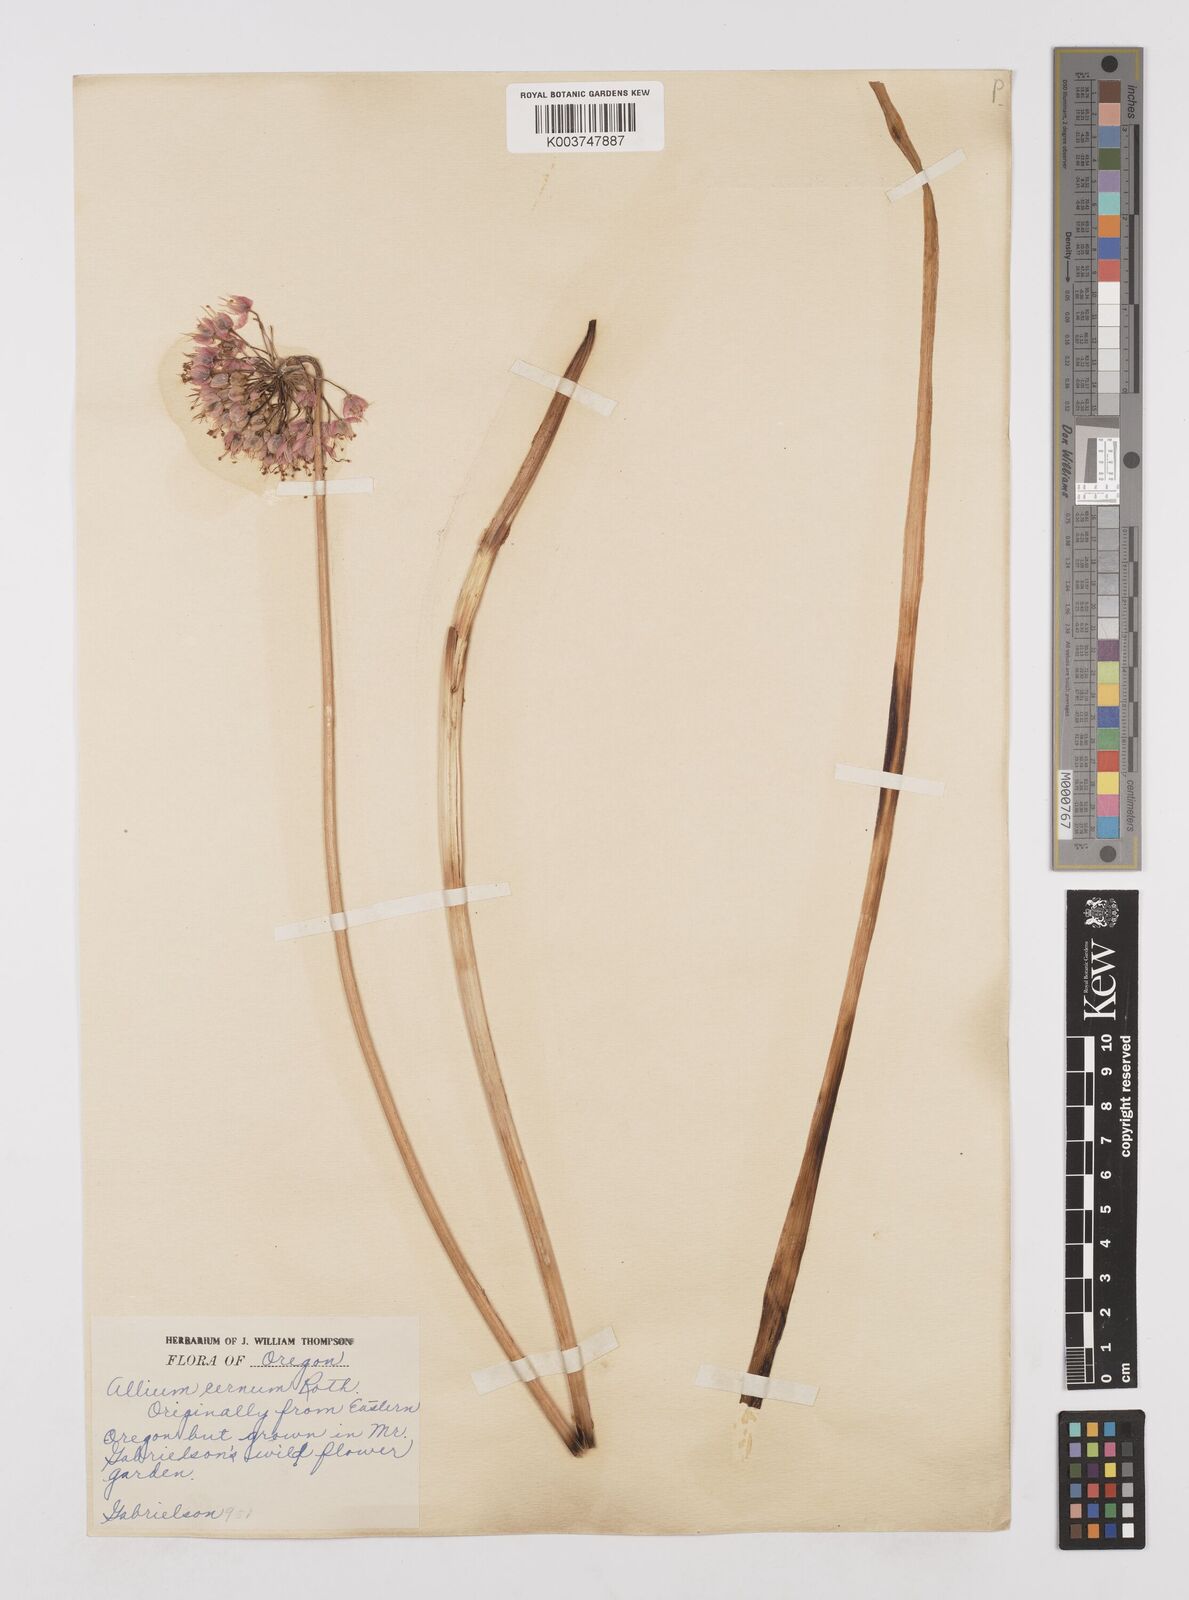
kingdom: Plantae
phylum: Tracheophyta
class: Liliopsida
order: Asparagales
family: Amaryllidaceae
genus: Allium
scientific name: Allium cernuum
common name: Nodding onion
